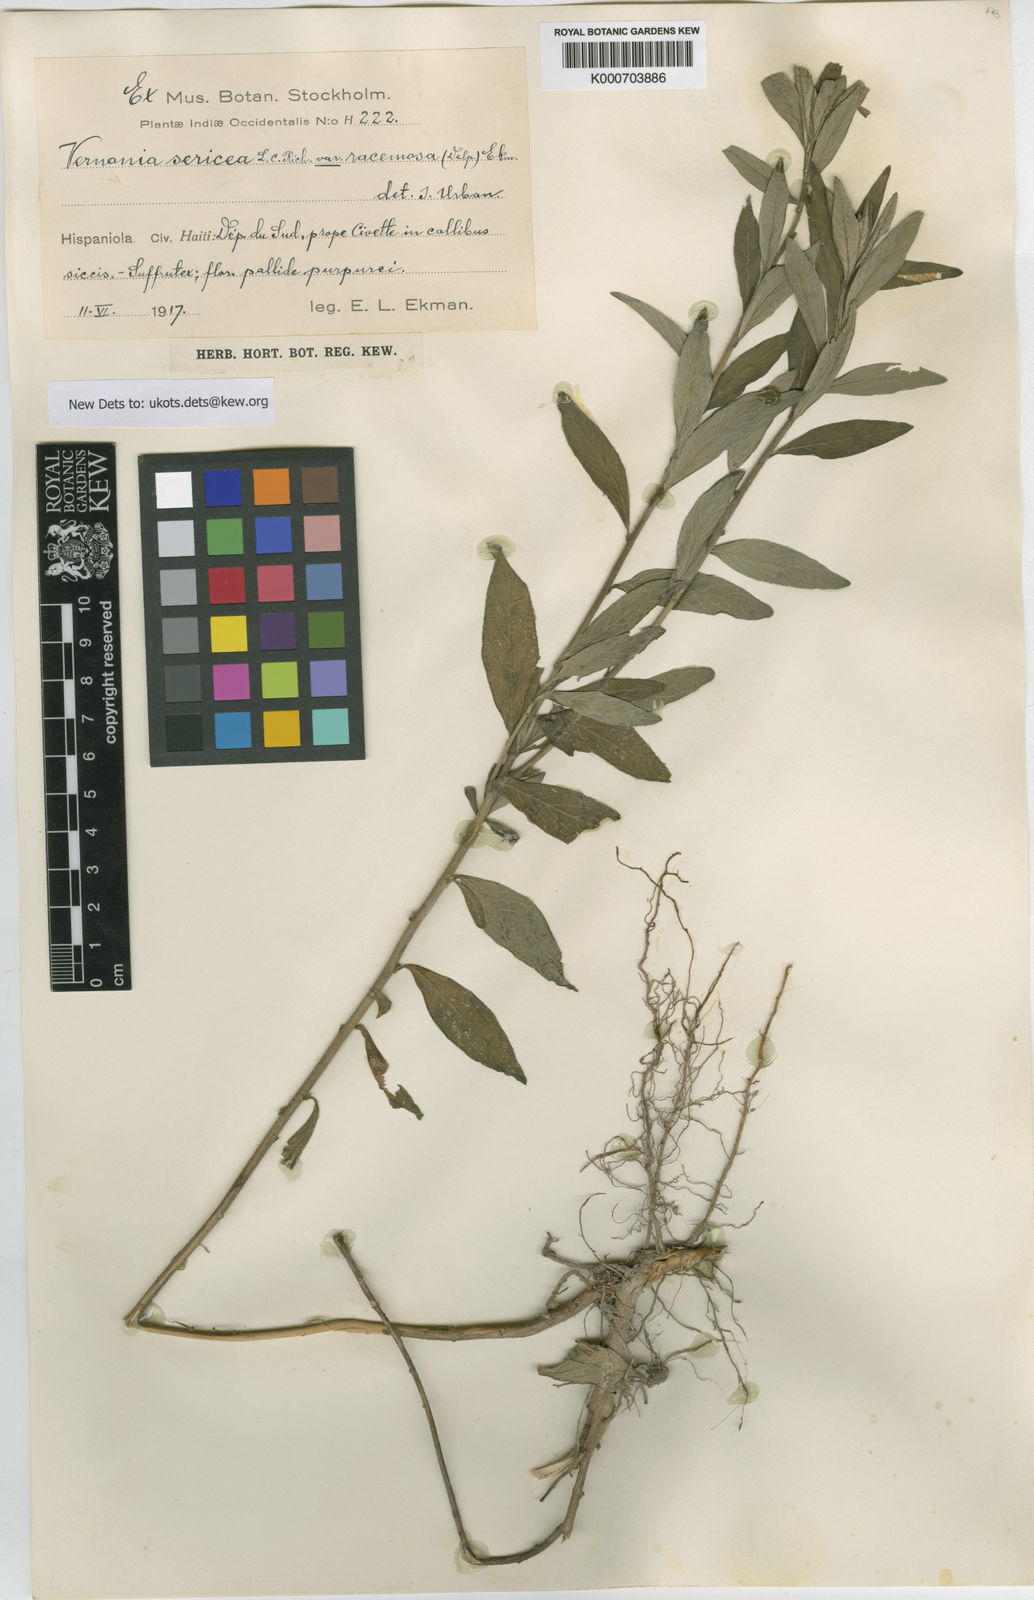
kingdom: Plantae
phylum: Tracheophyta
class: Magnoliopsida
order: Asterales
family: Asteraceae
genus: Lepidaploa
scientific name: Lepidaploa sericea
